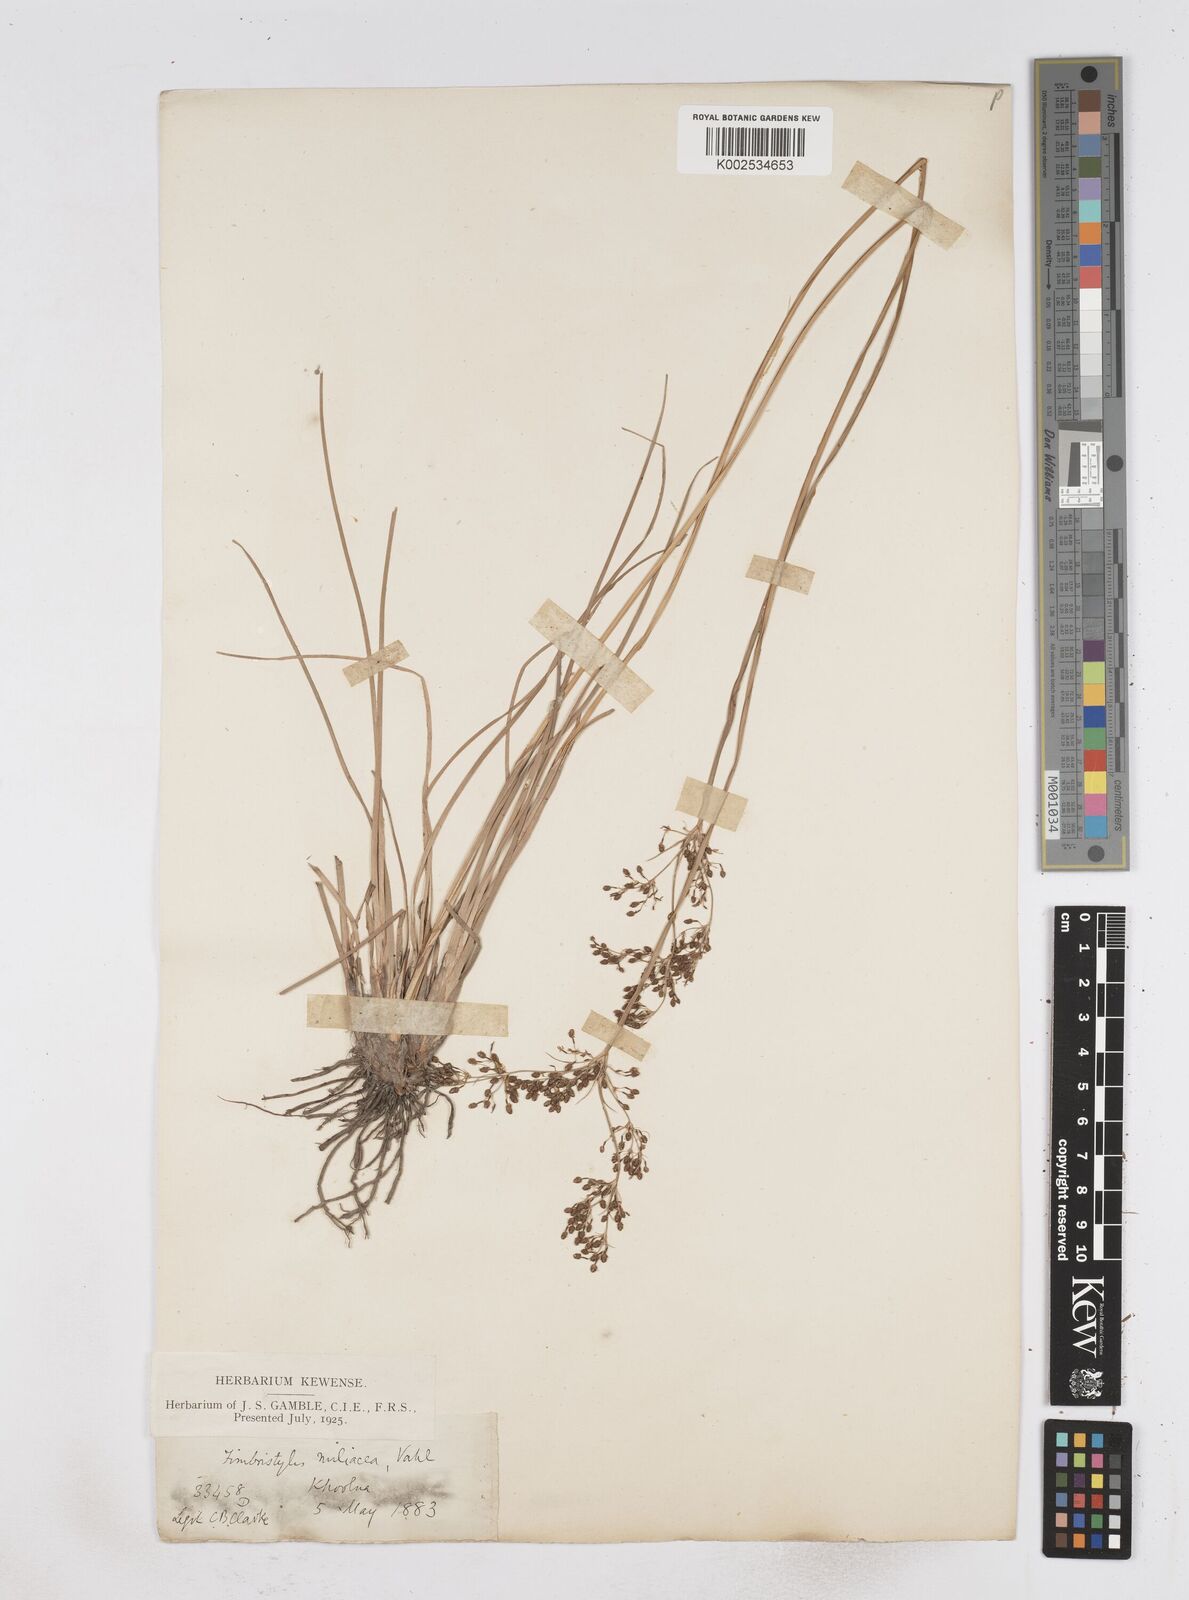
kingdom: Plantae
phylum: Tracheophyta
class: Liliopsida
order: Poales
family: Cyperaceae
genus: Fimbristylis
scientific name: Fimbristylis littoralis
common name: Fimbry
